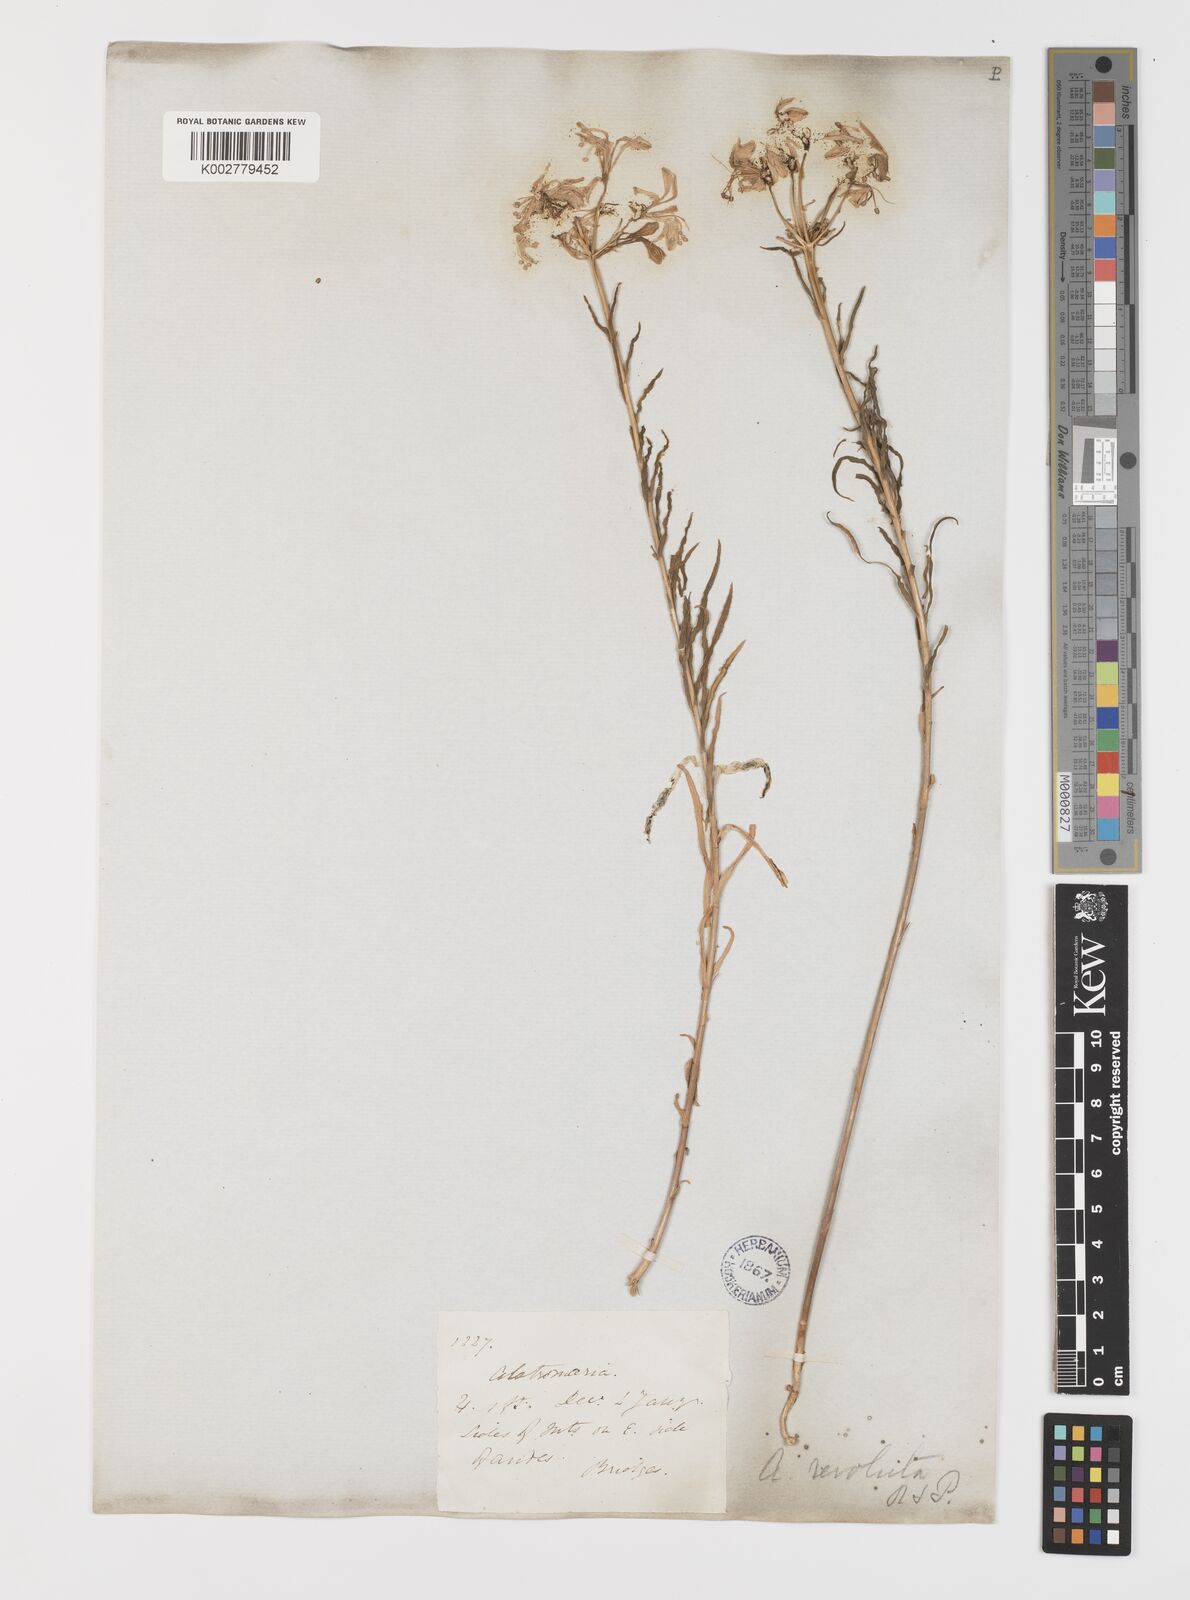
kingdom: Plantae
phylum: Tracheophyta
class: Liliopsida
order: Liliales
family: Alstroemeriaceae
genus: Alstroemeria
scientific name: Alstroemeria revoluta
